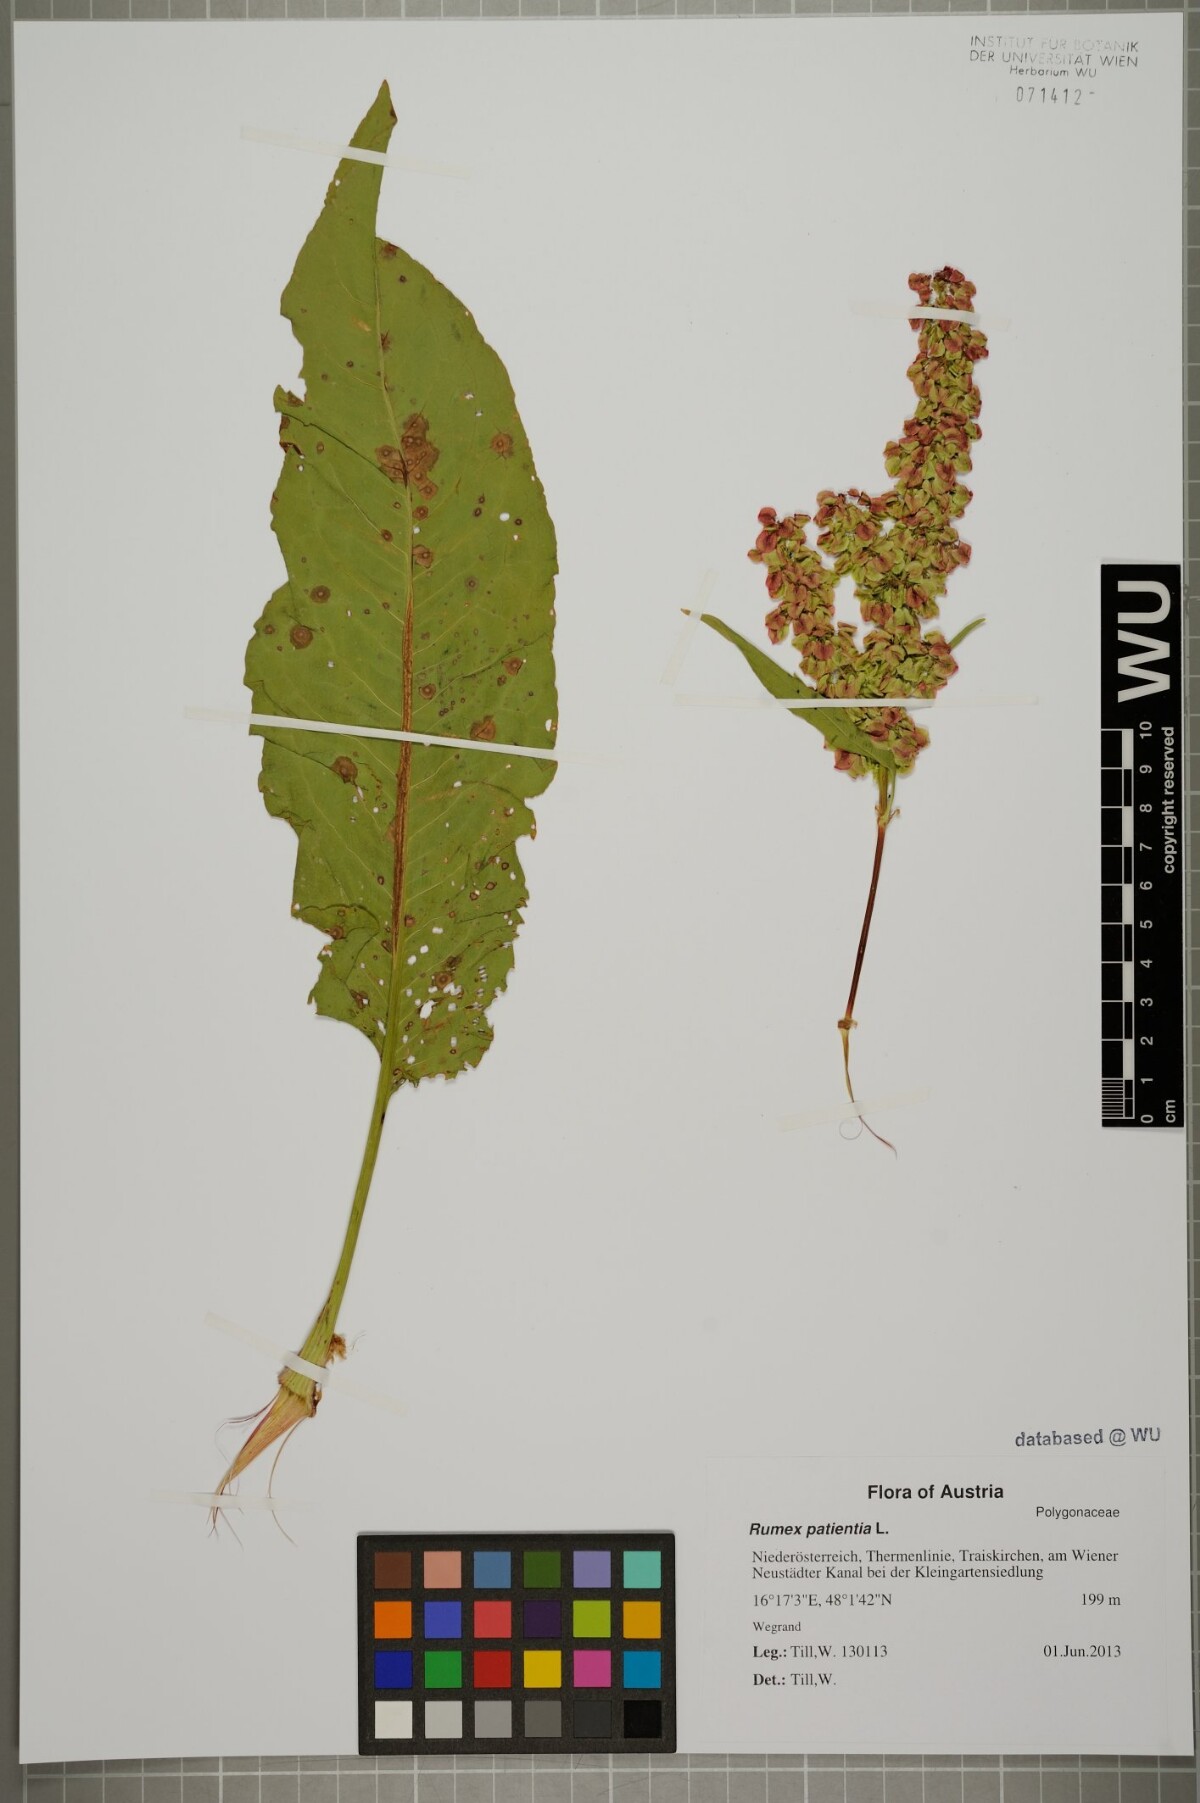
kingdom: Plantae
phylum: Tracheophyta
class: Magnoliopsida
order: Caryophyllales
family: Polygonaceae
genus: Rumex
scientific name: Rumex patientia
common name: Patience dock
